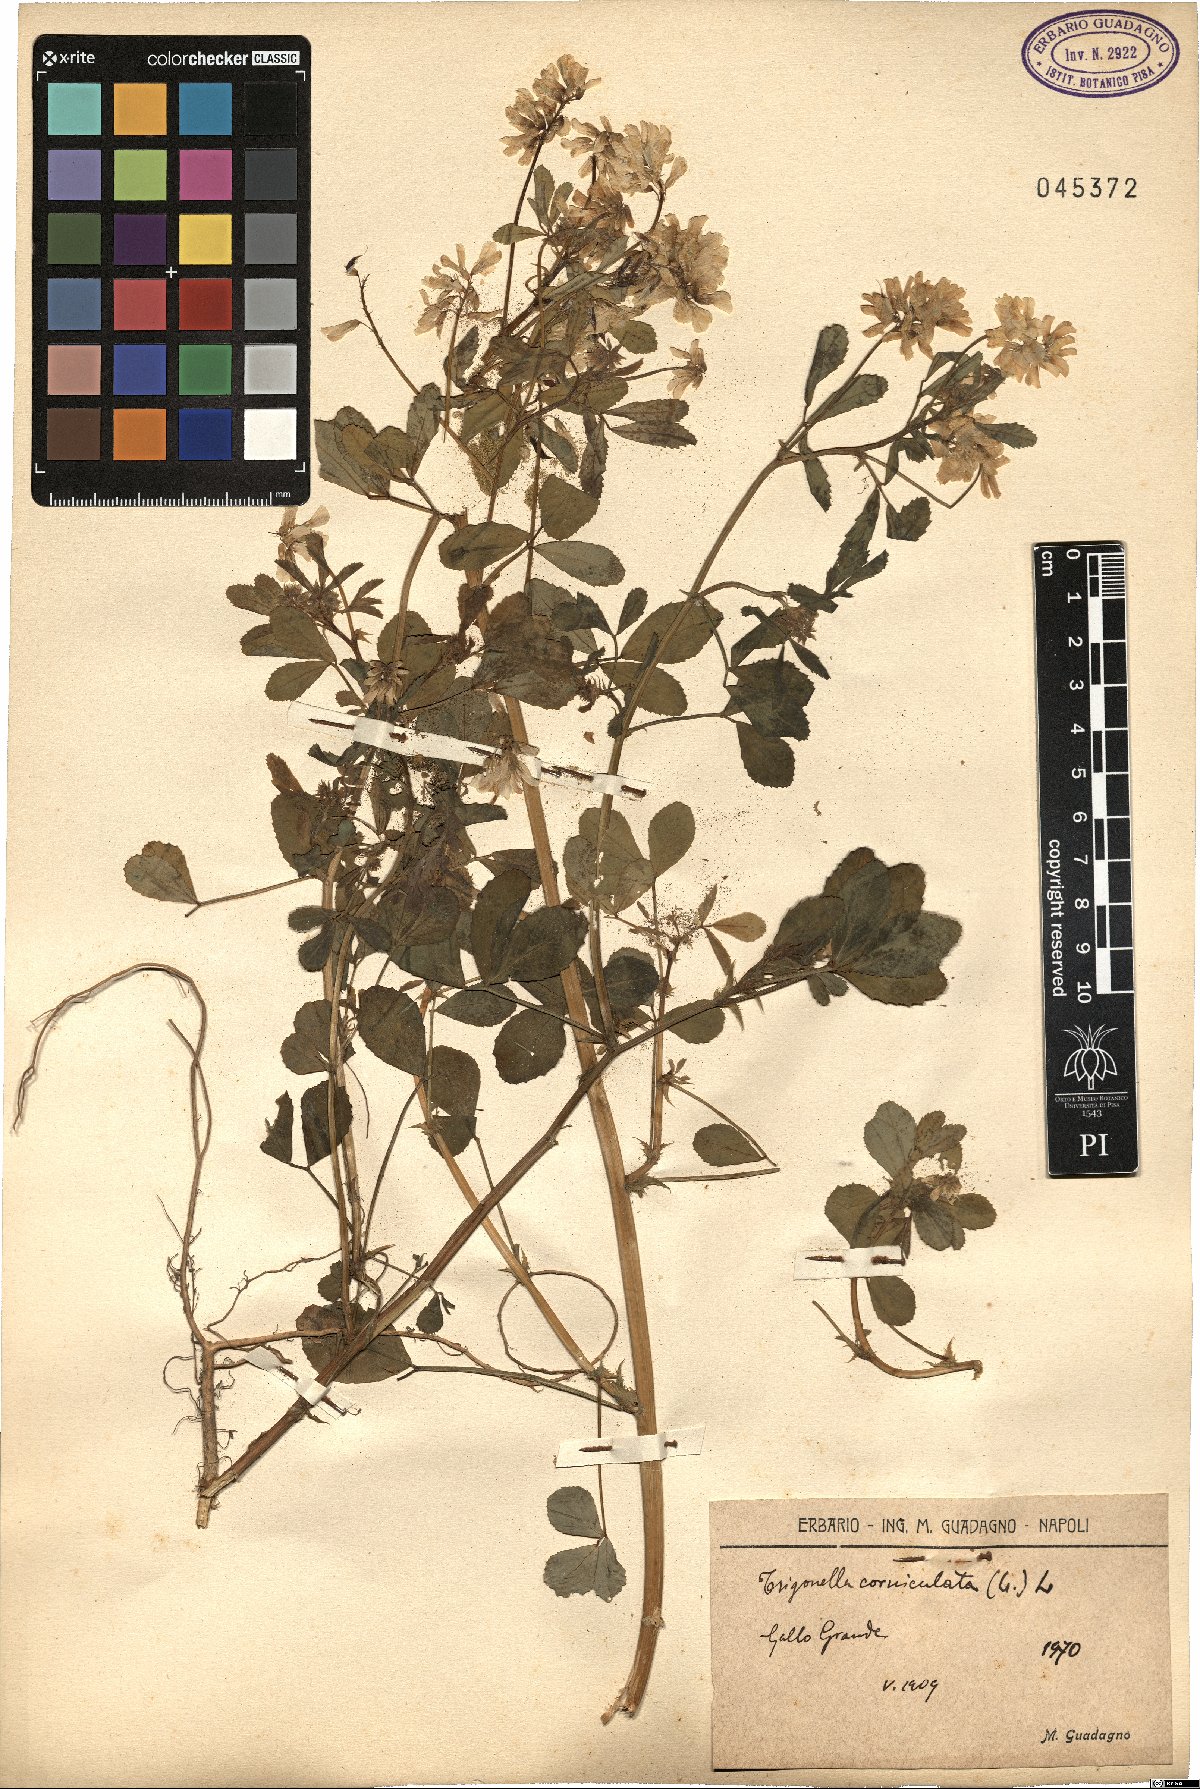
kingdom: Plantae
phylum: Tracheophyta
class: Magnoliopsida
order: Fabales
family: Fabaceae
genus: Trigonella
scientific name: Trigonella balansae
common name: Sickle-fruited fenugreek
